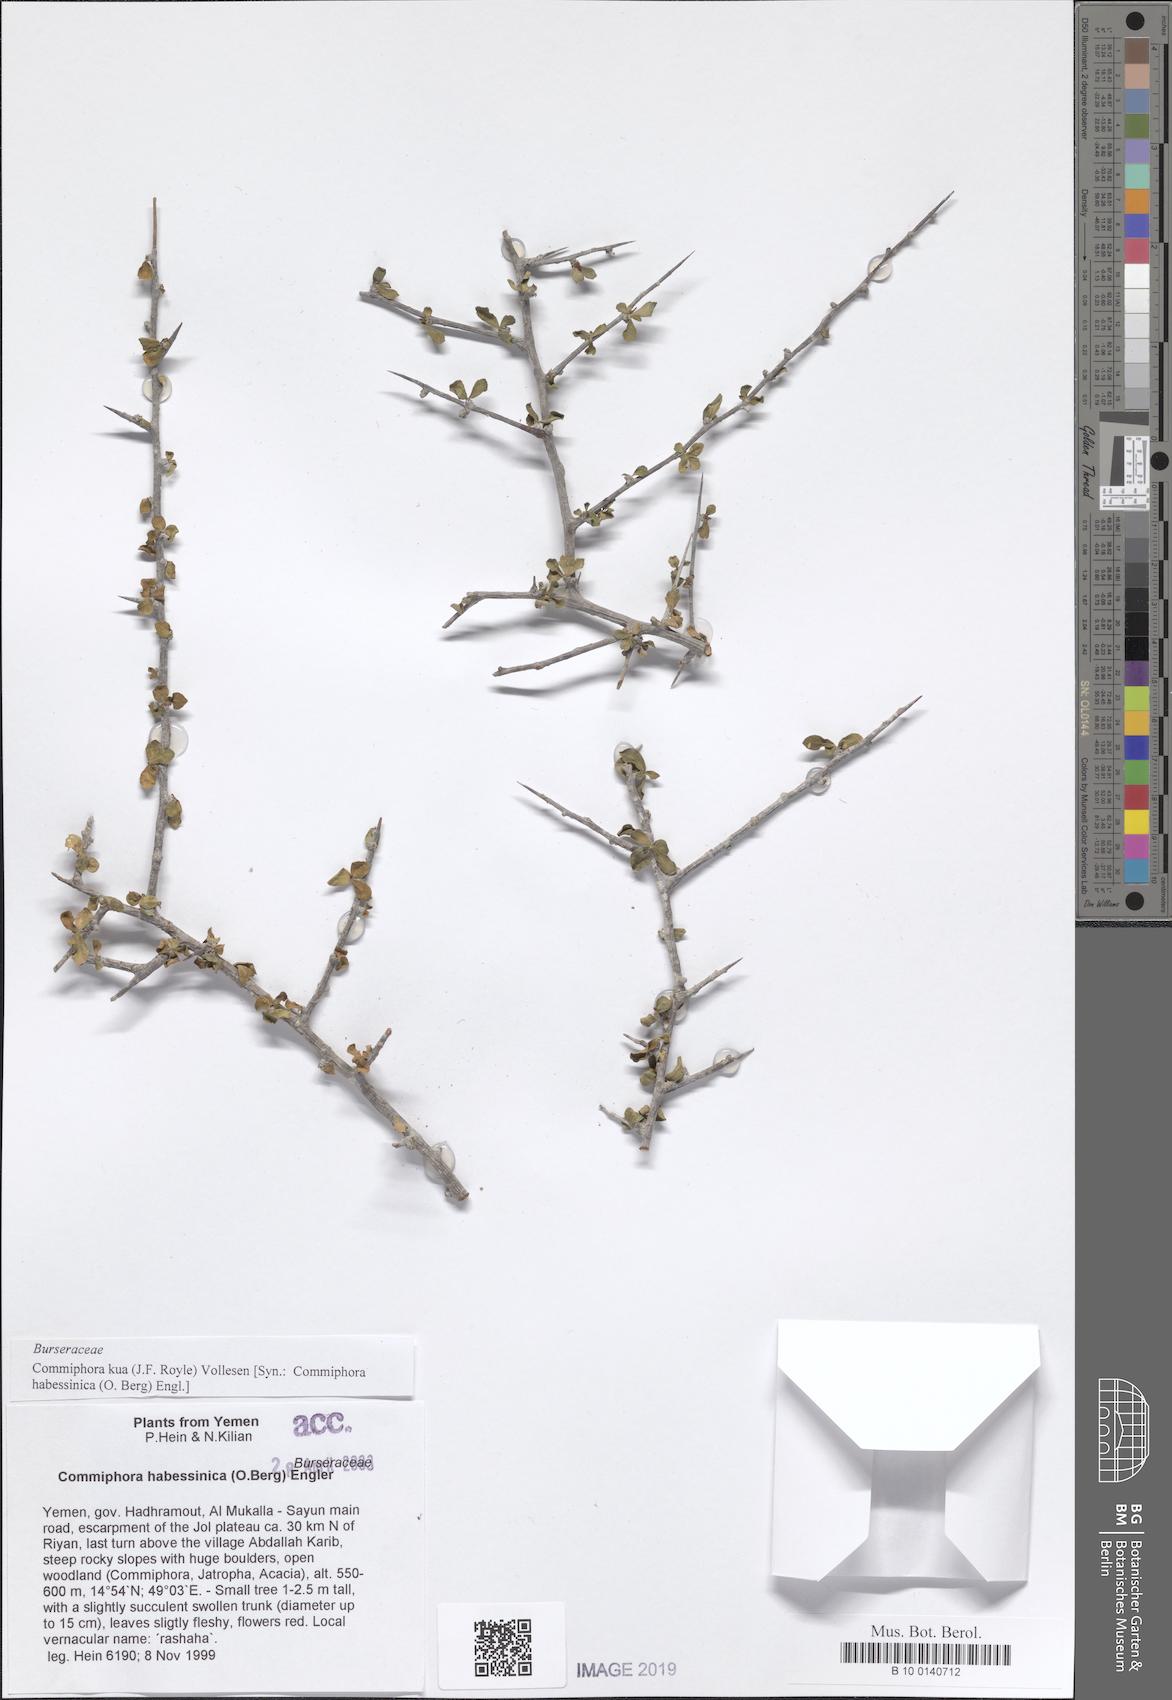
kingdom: Plantae
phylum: Tracheophyta
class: Magnoliopsida
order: Sapindales
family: Burseraceae
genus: Commiphora
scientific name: Commiphora kua
